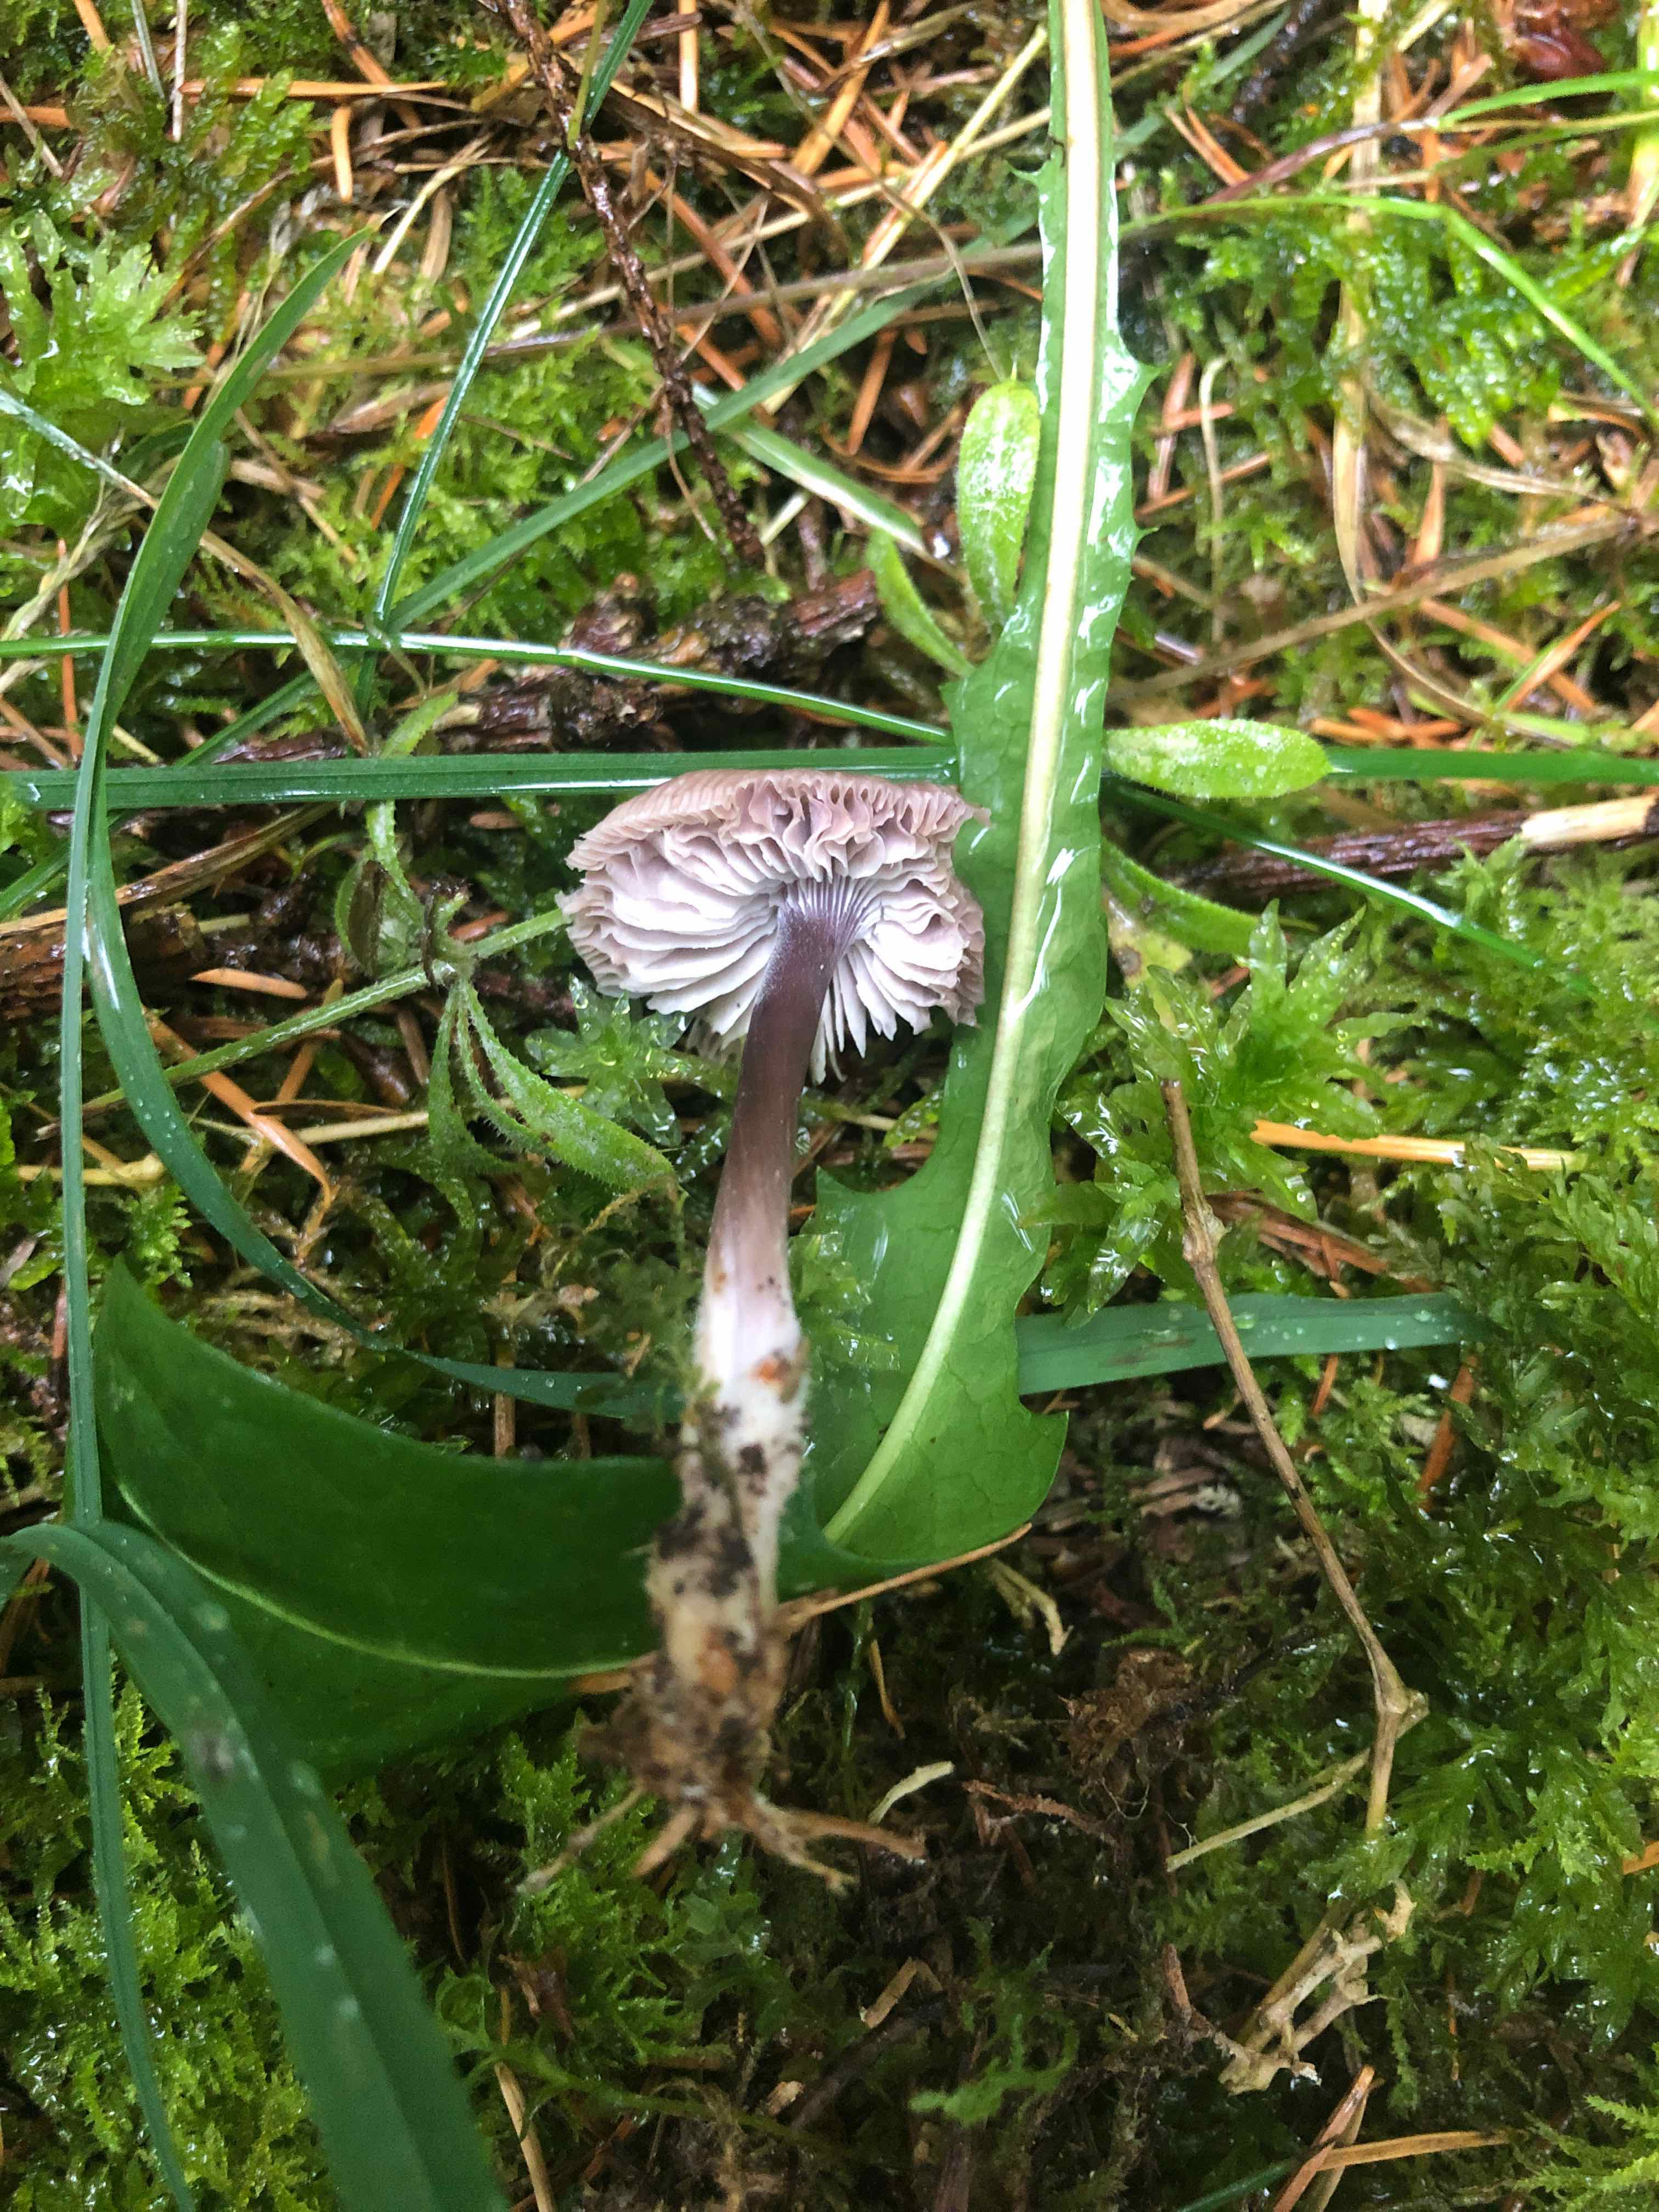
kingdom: Fungi
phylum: Basidiomycota
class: Agaricomycetes
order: Agaricales
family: Mycenaceae
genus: Mycena
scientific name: Mycena
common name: huesvamp
